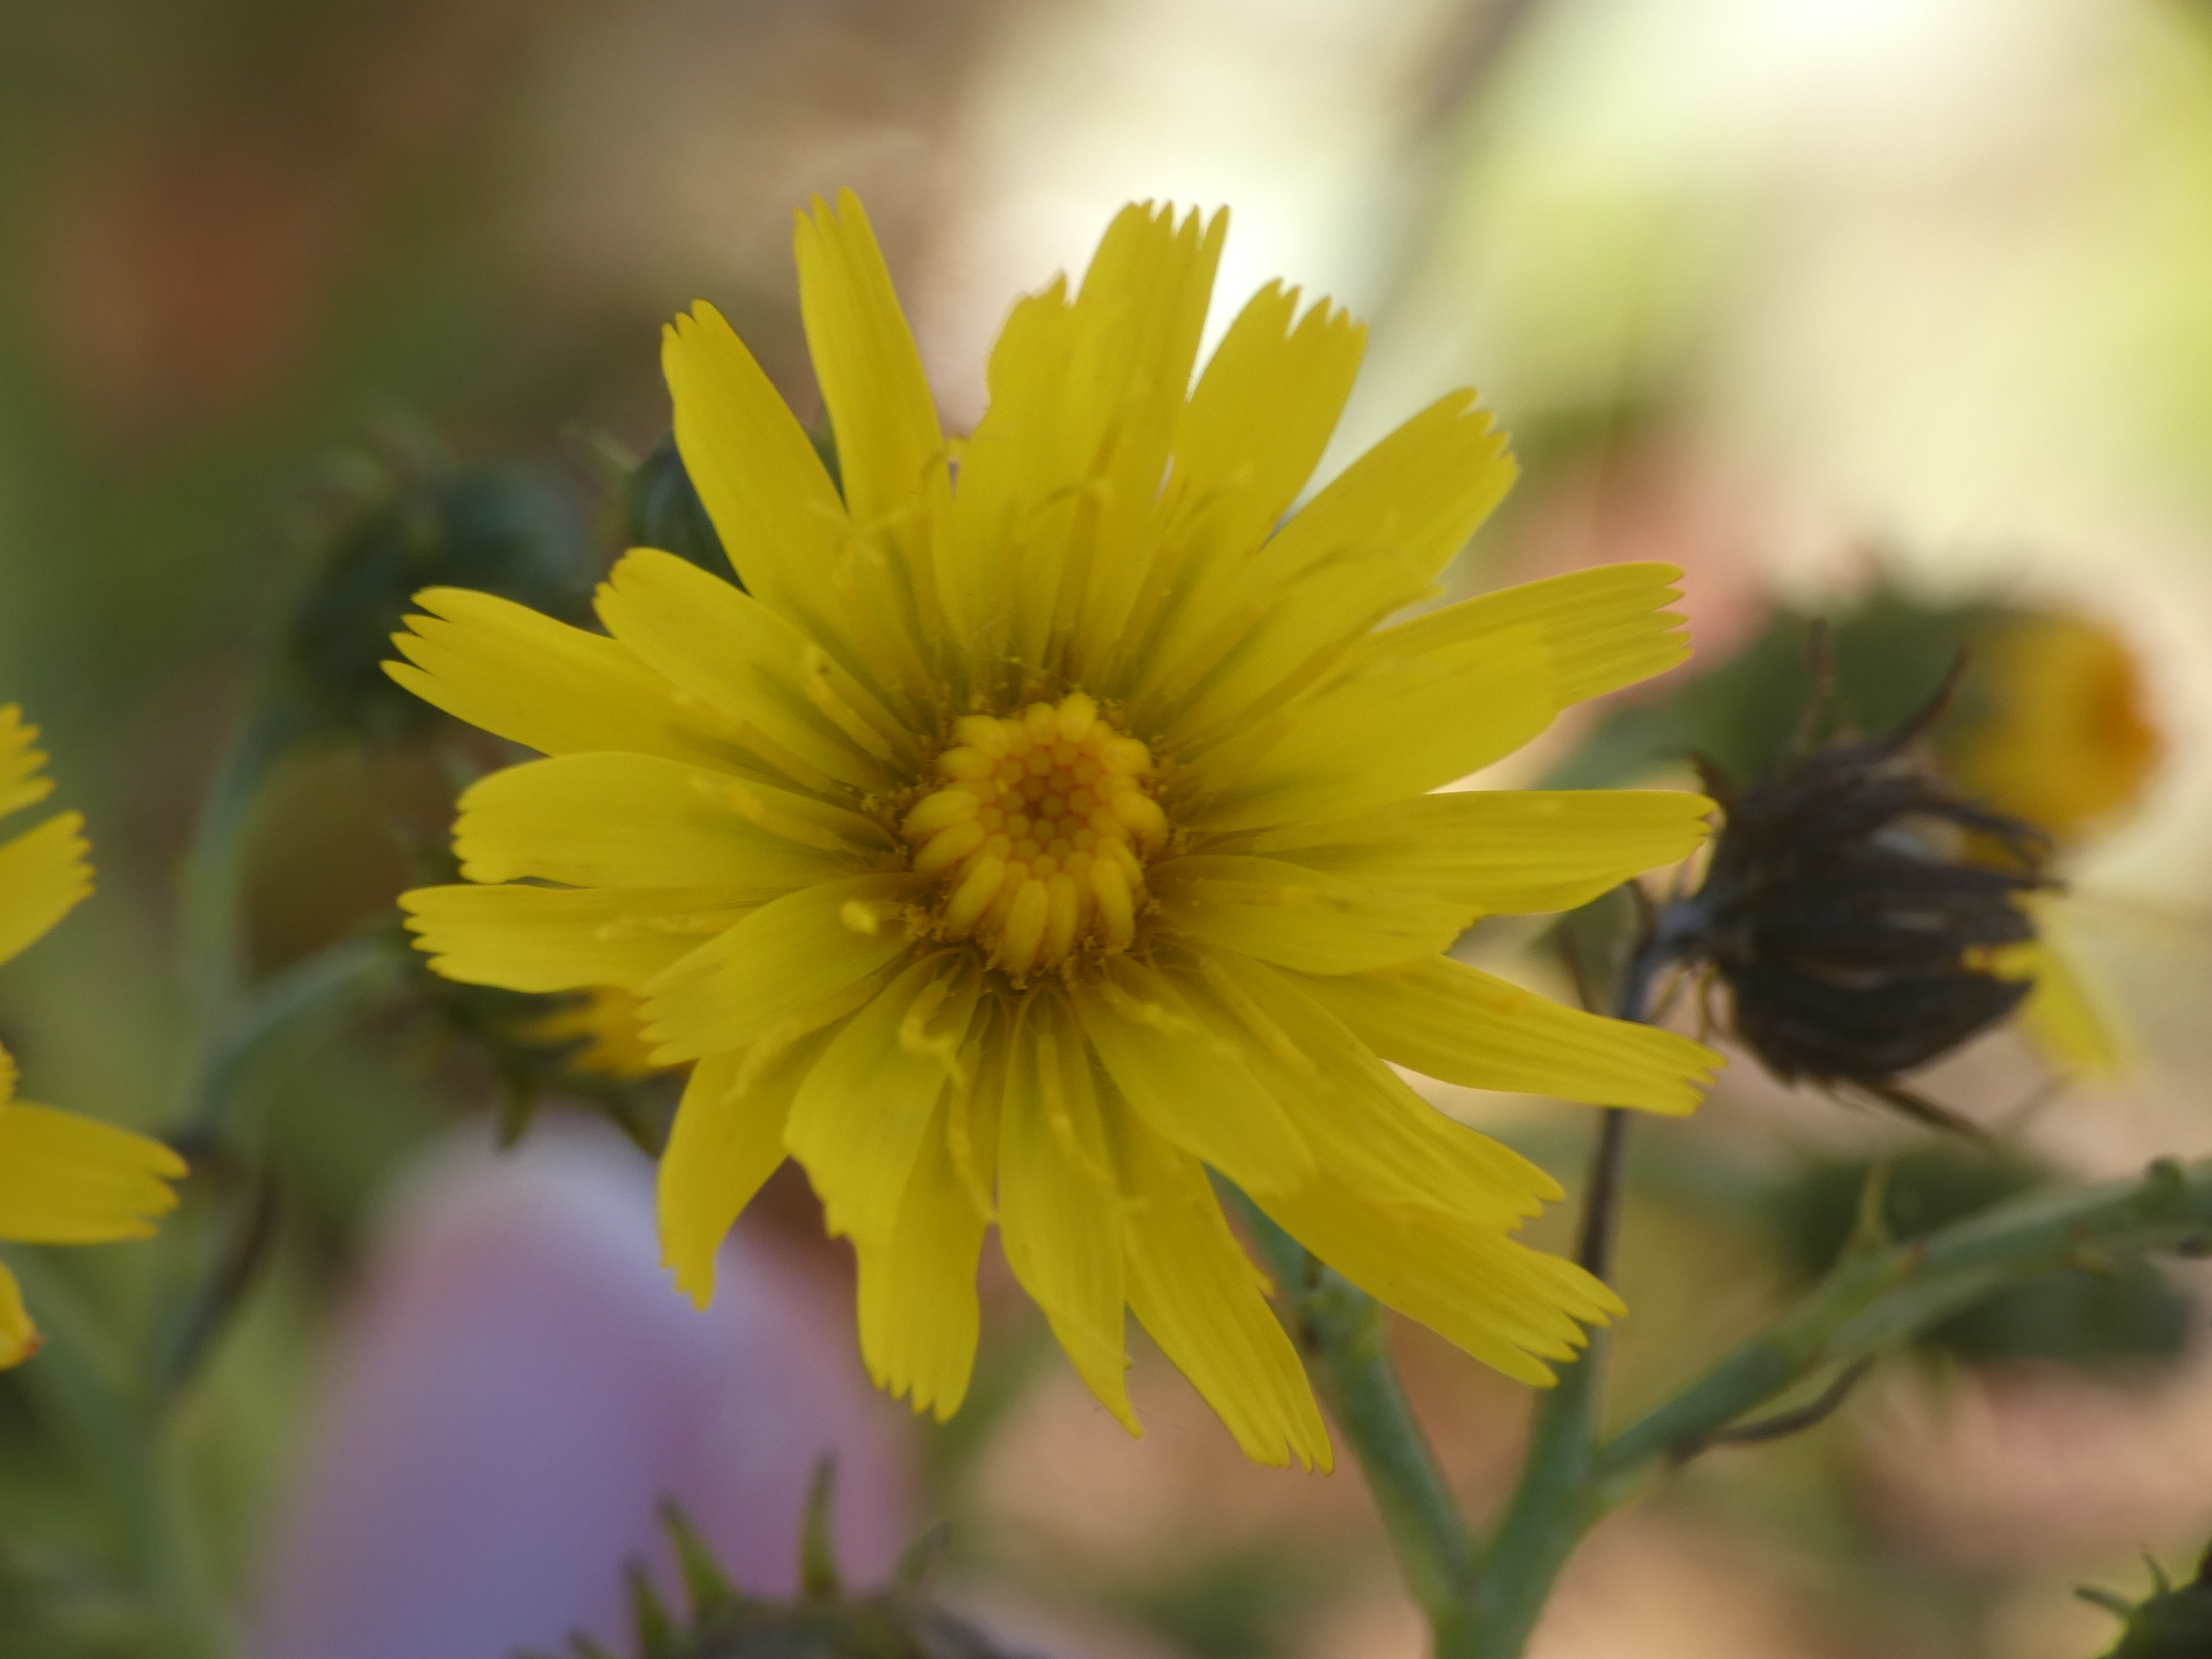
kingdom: Plantae
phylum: Tracheophyta
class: Magnoliopsida
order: Asterales
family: Asteraceae
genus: Hieracium
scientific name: Hieracium umbellatum
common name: Smalbladet høgeurt
